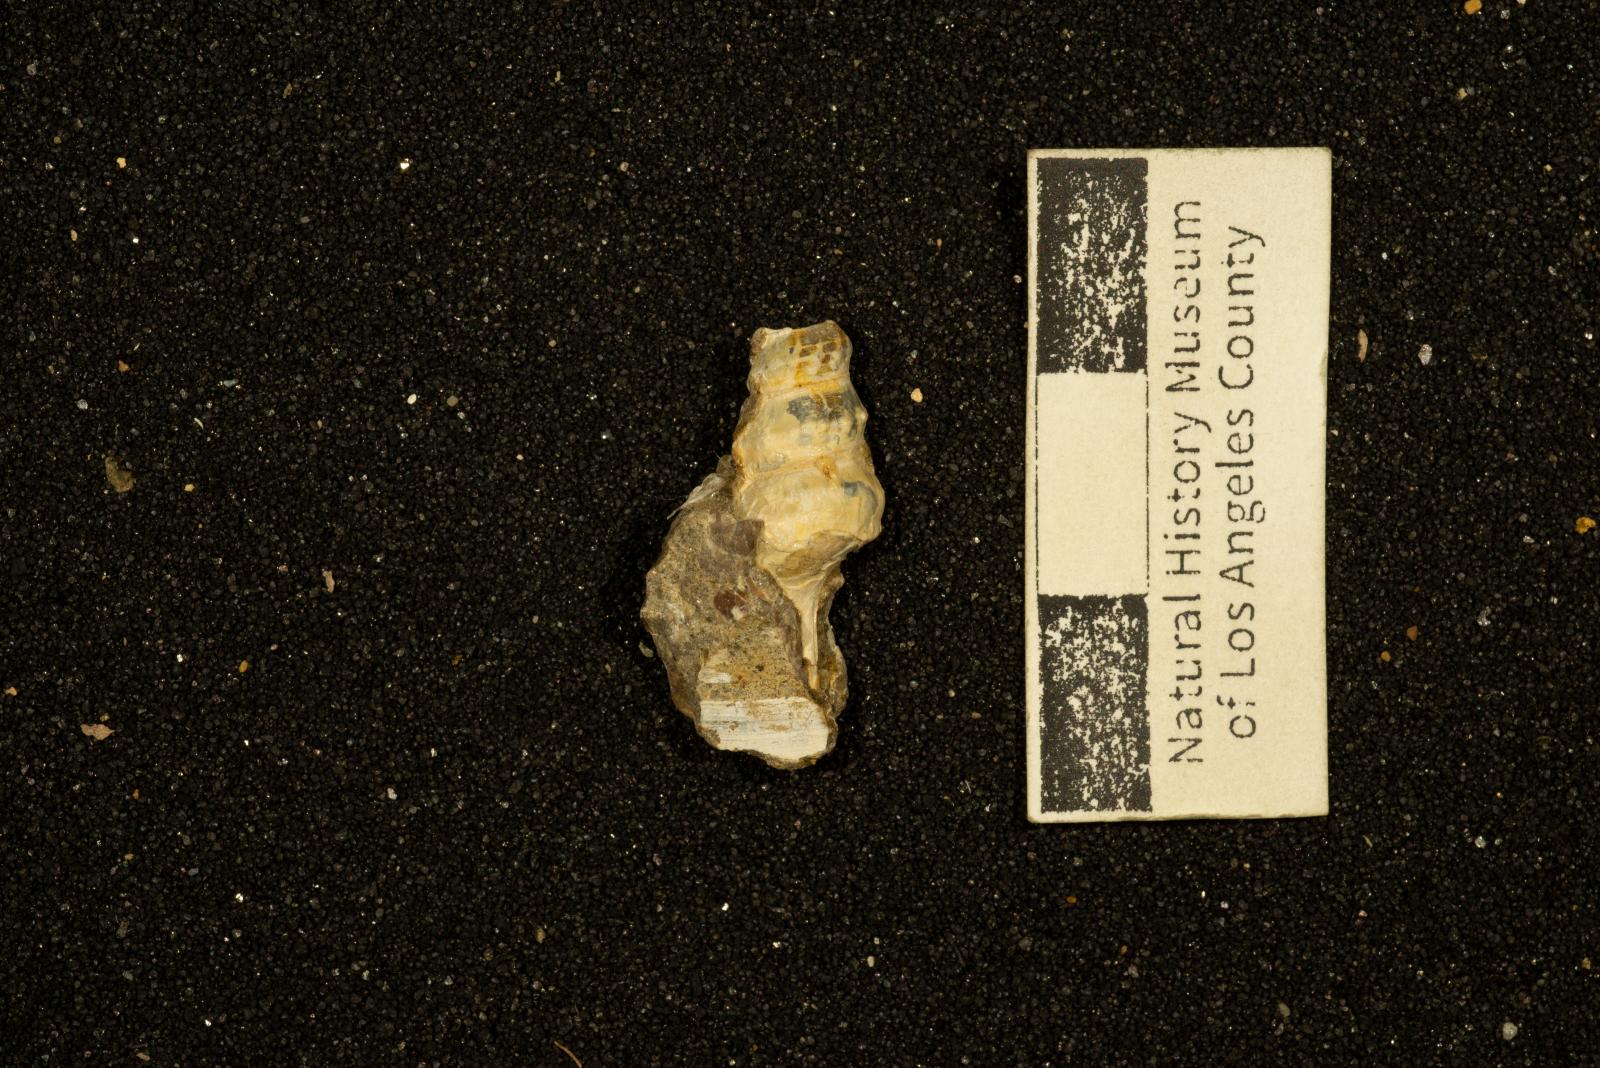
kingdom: Animalia
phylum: Mollusca
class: Gastropoda
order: Littorinimorpha
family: Aporrhaidae
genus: Anchura
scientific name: Anchura phaba
